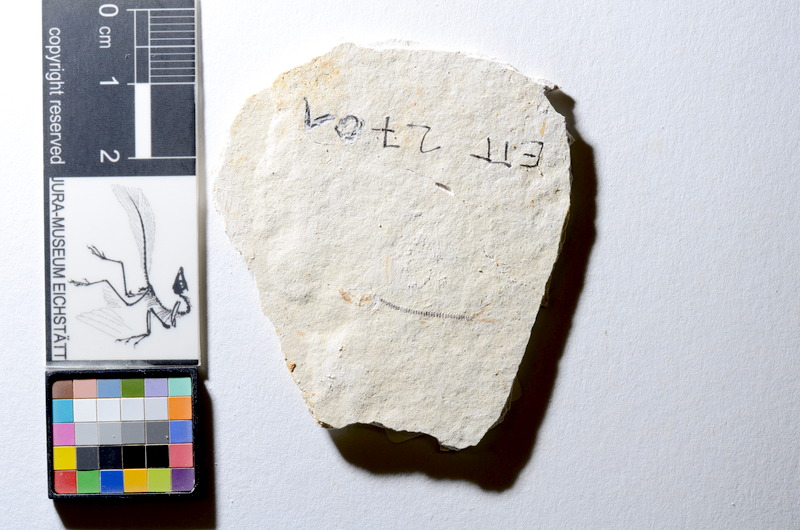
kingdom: Animalia
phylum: Chordata
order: Salmoniformes
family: Orthogonikleithridae
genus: Orthogonikleithrus
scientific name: Orthogonikleithrus hoelli
